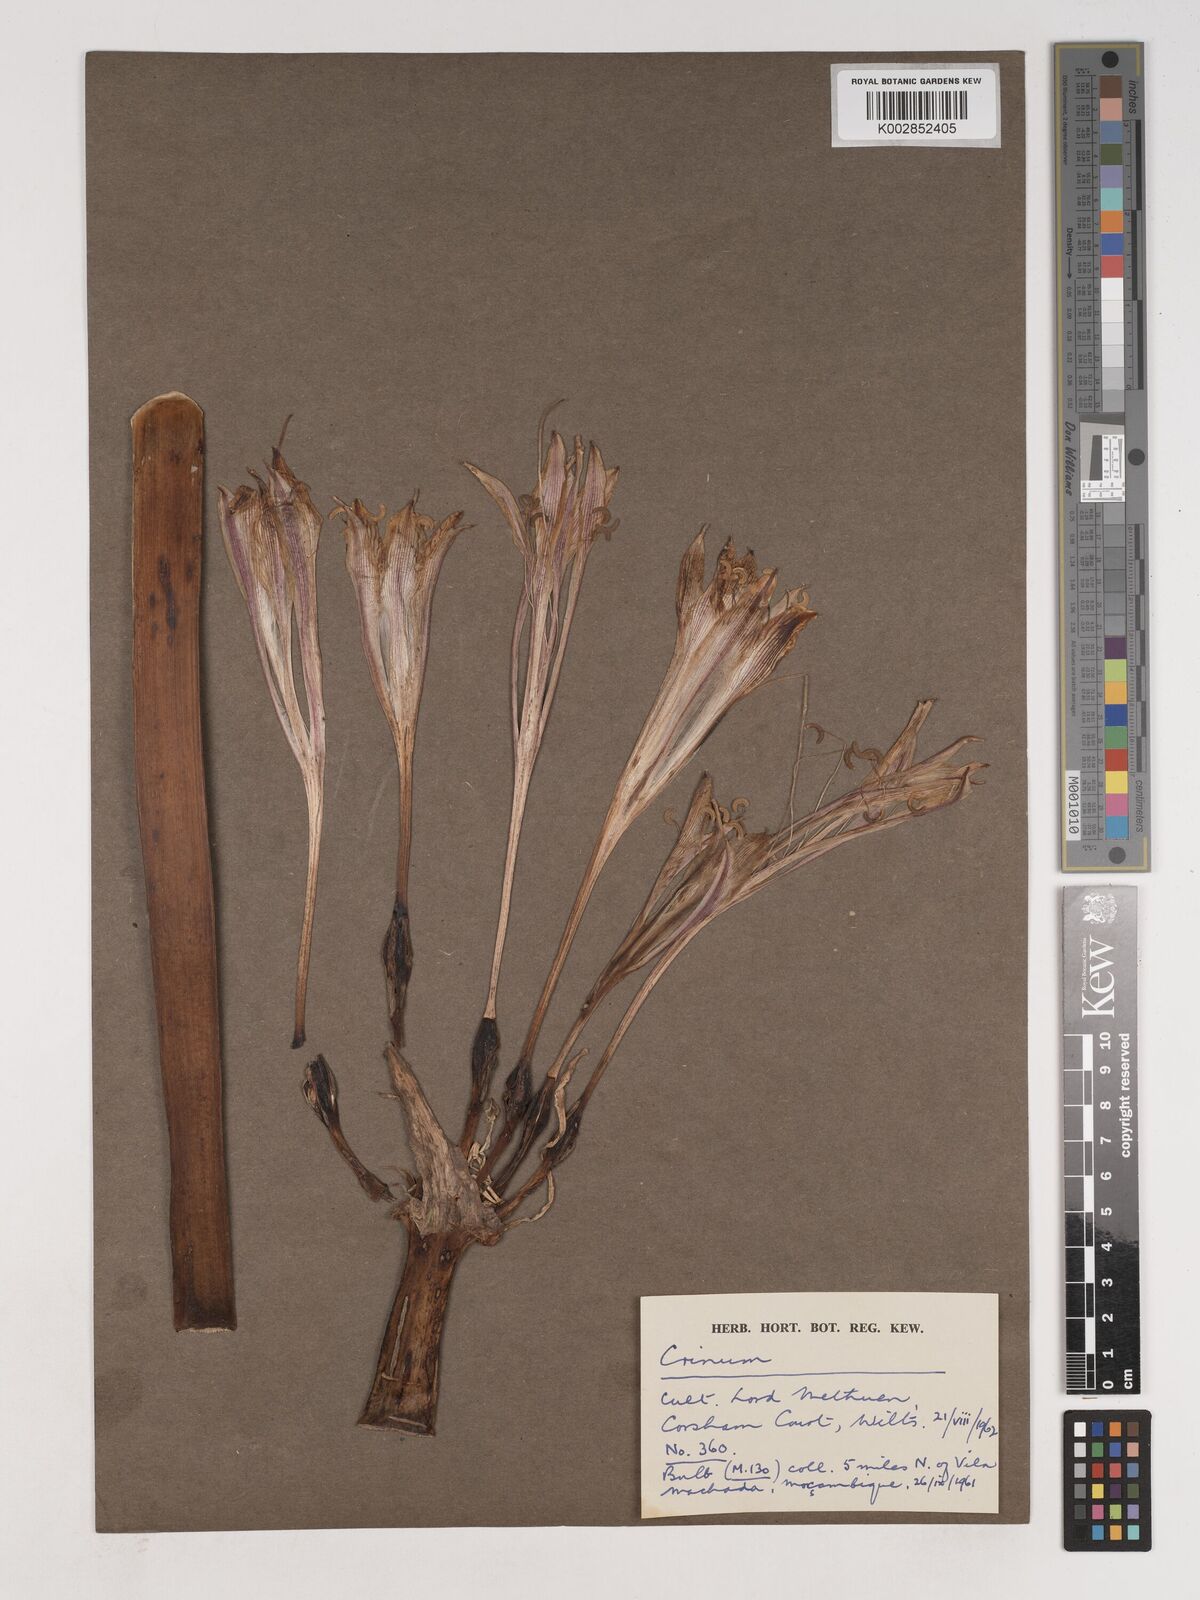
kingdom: Plantae
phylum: Tracheophyta
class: Liliopsida
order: Asparagales
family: Amaryllidaceae
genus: Crinum
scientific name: Crinum stuhlmannii
